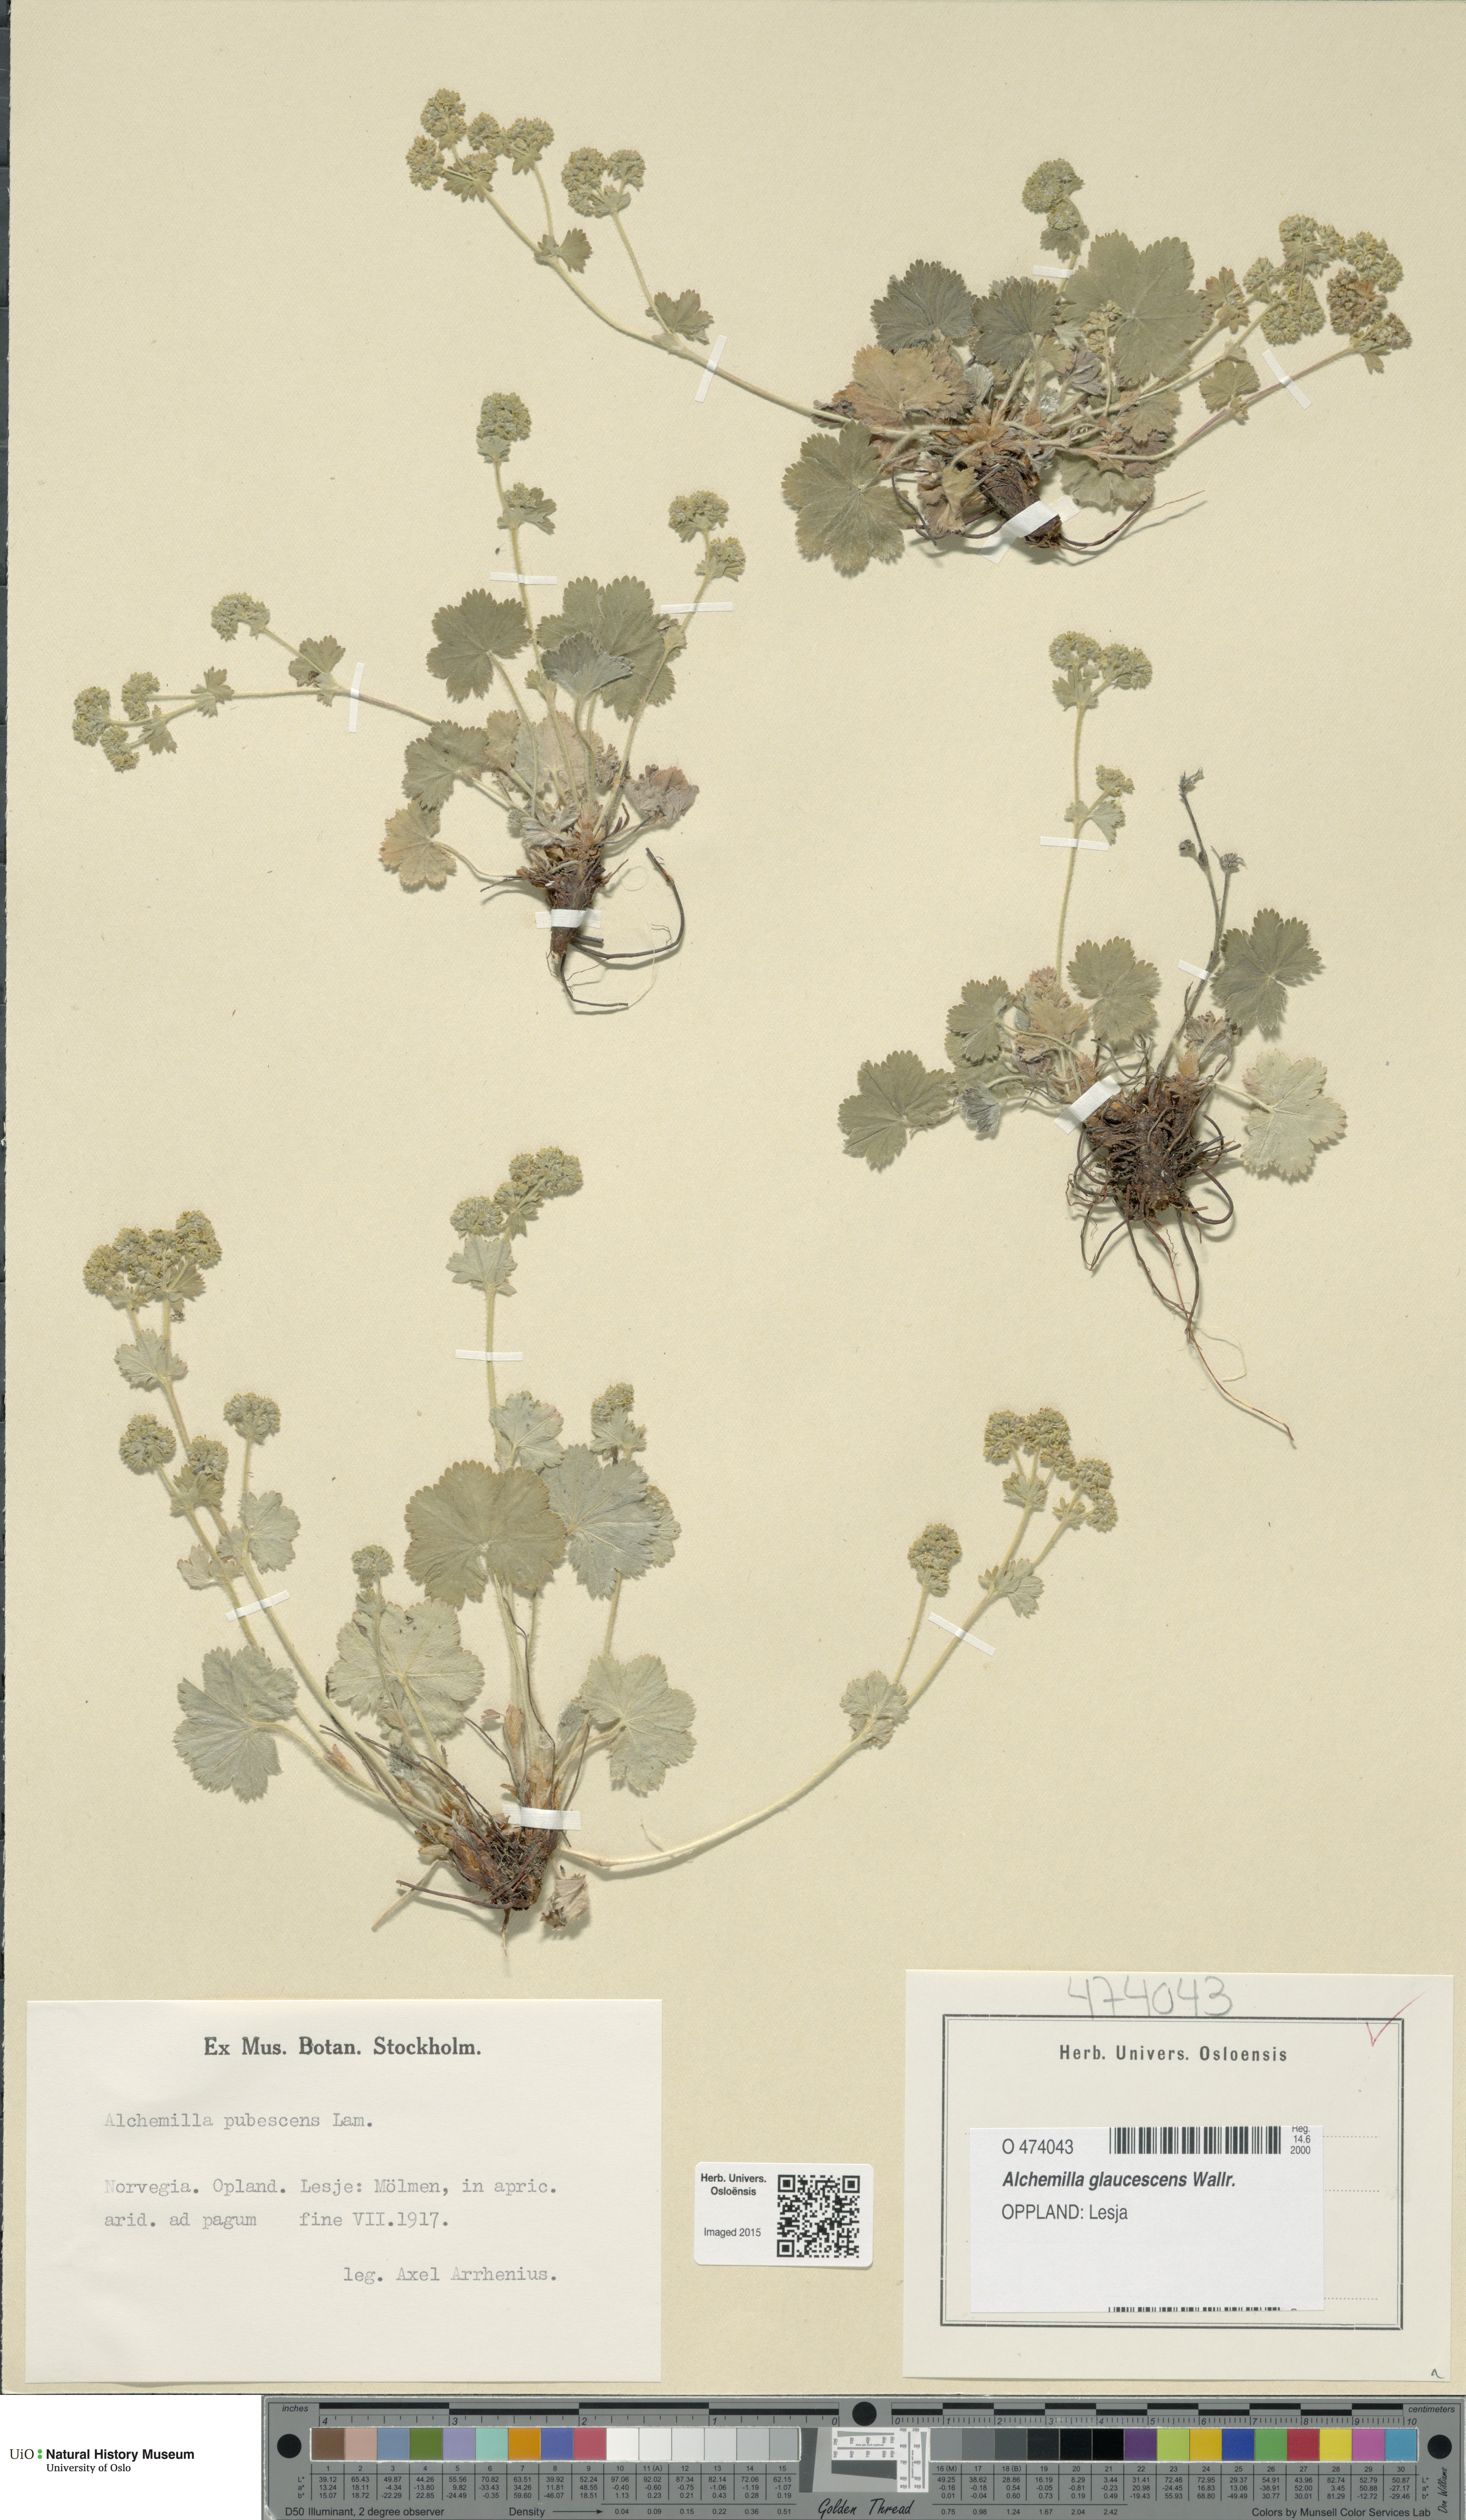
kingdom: Plantae
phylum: Tracheophyta
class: Magnoliopsida
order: Rosales
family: Rosaceae
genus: Alchemilla
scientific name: Alchemilla glaucescens
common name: Silky lady's mantle
